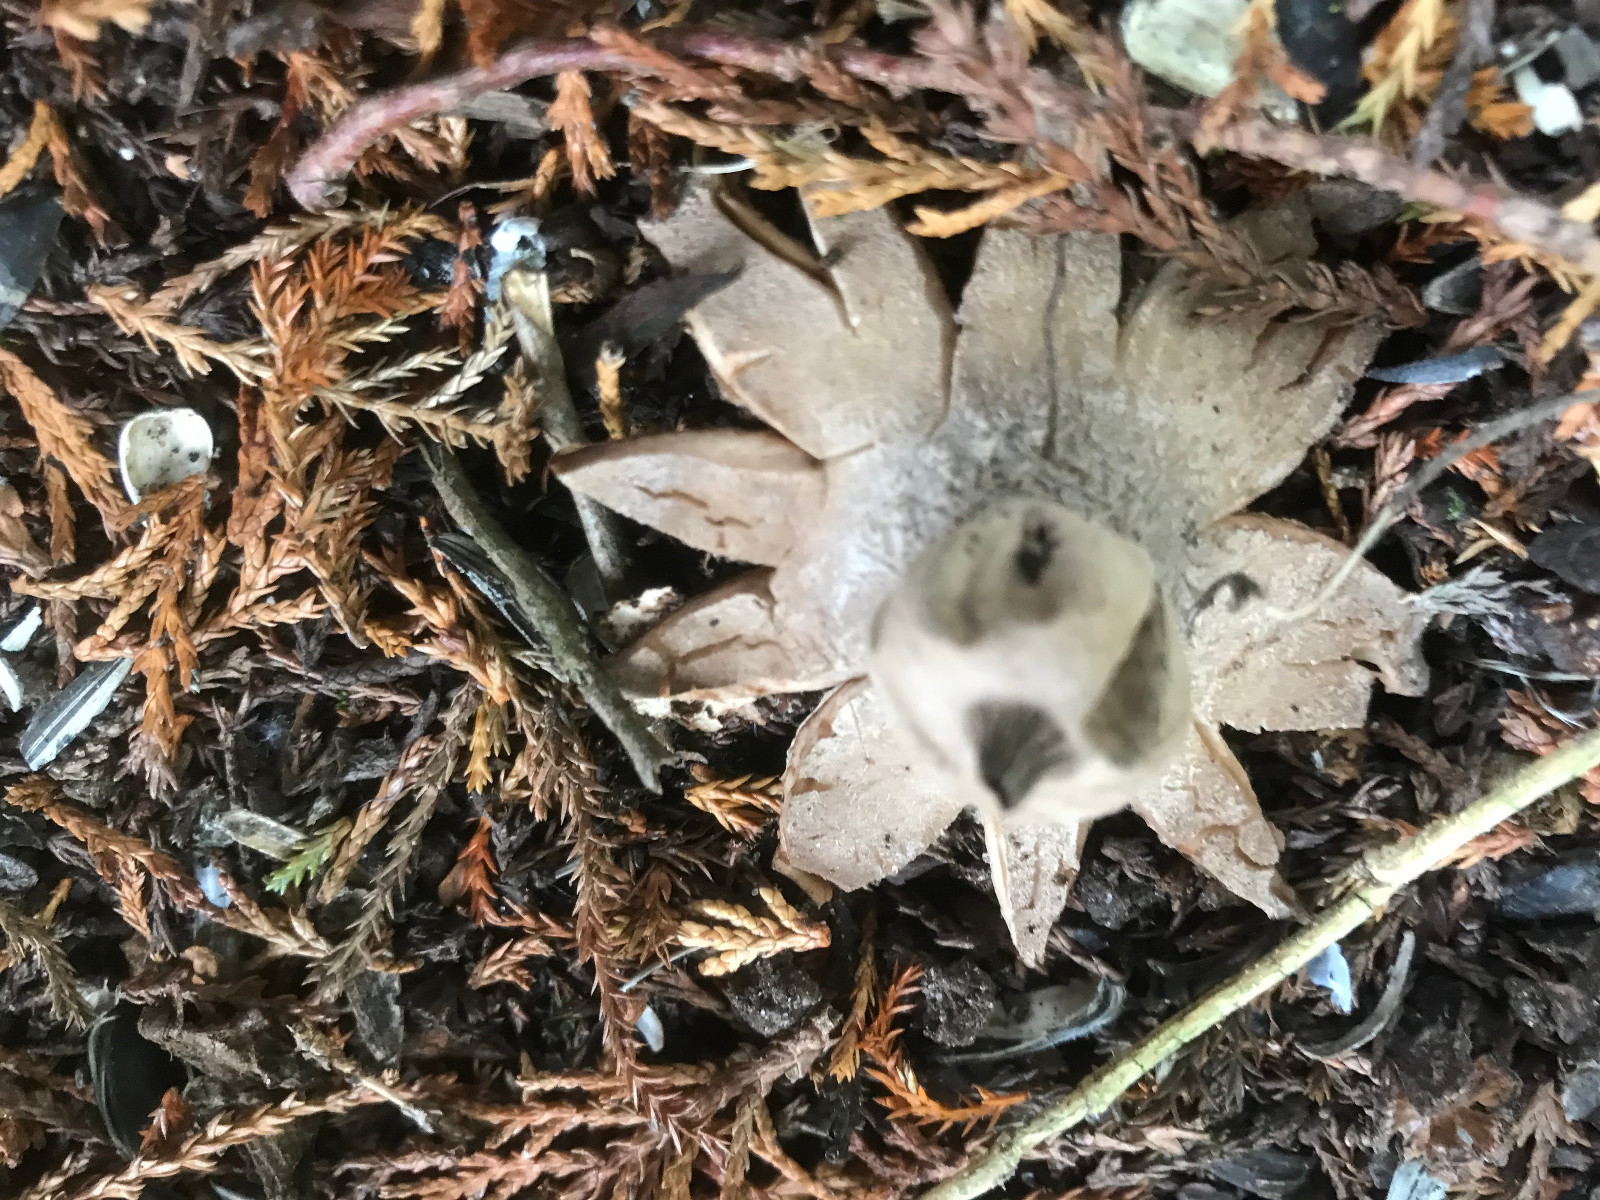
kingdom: Fungi
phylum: Basidiomycota
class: Agaricomycetes
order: Geastrales
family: Geastraceae
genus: Geastrum
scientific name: Geastrum striatum
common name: krave-stjernebold
